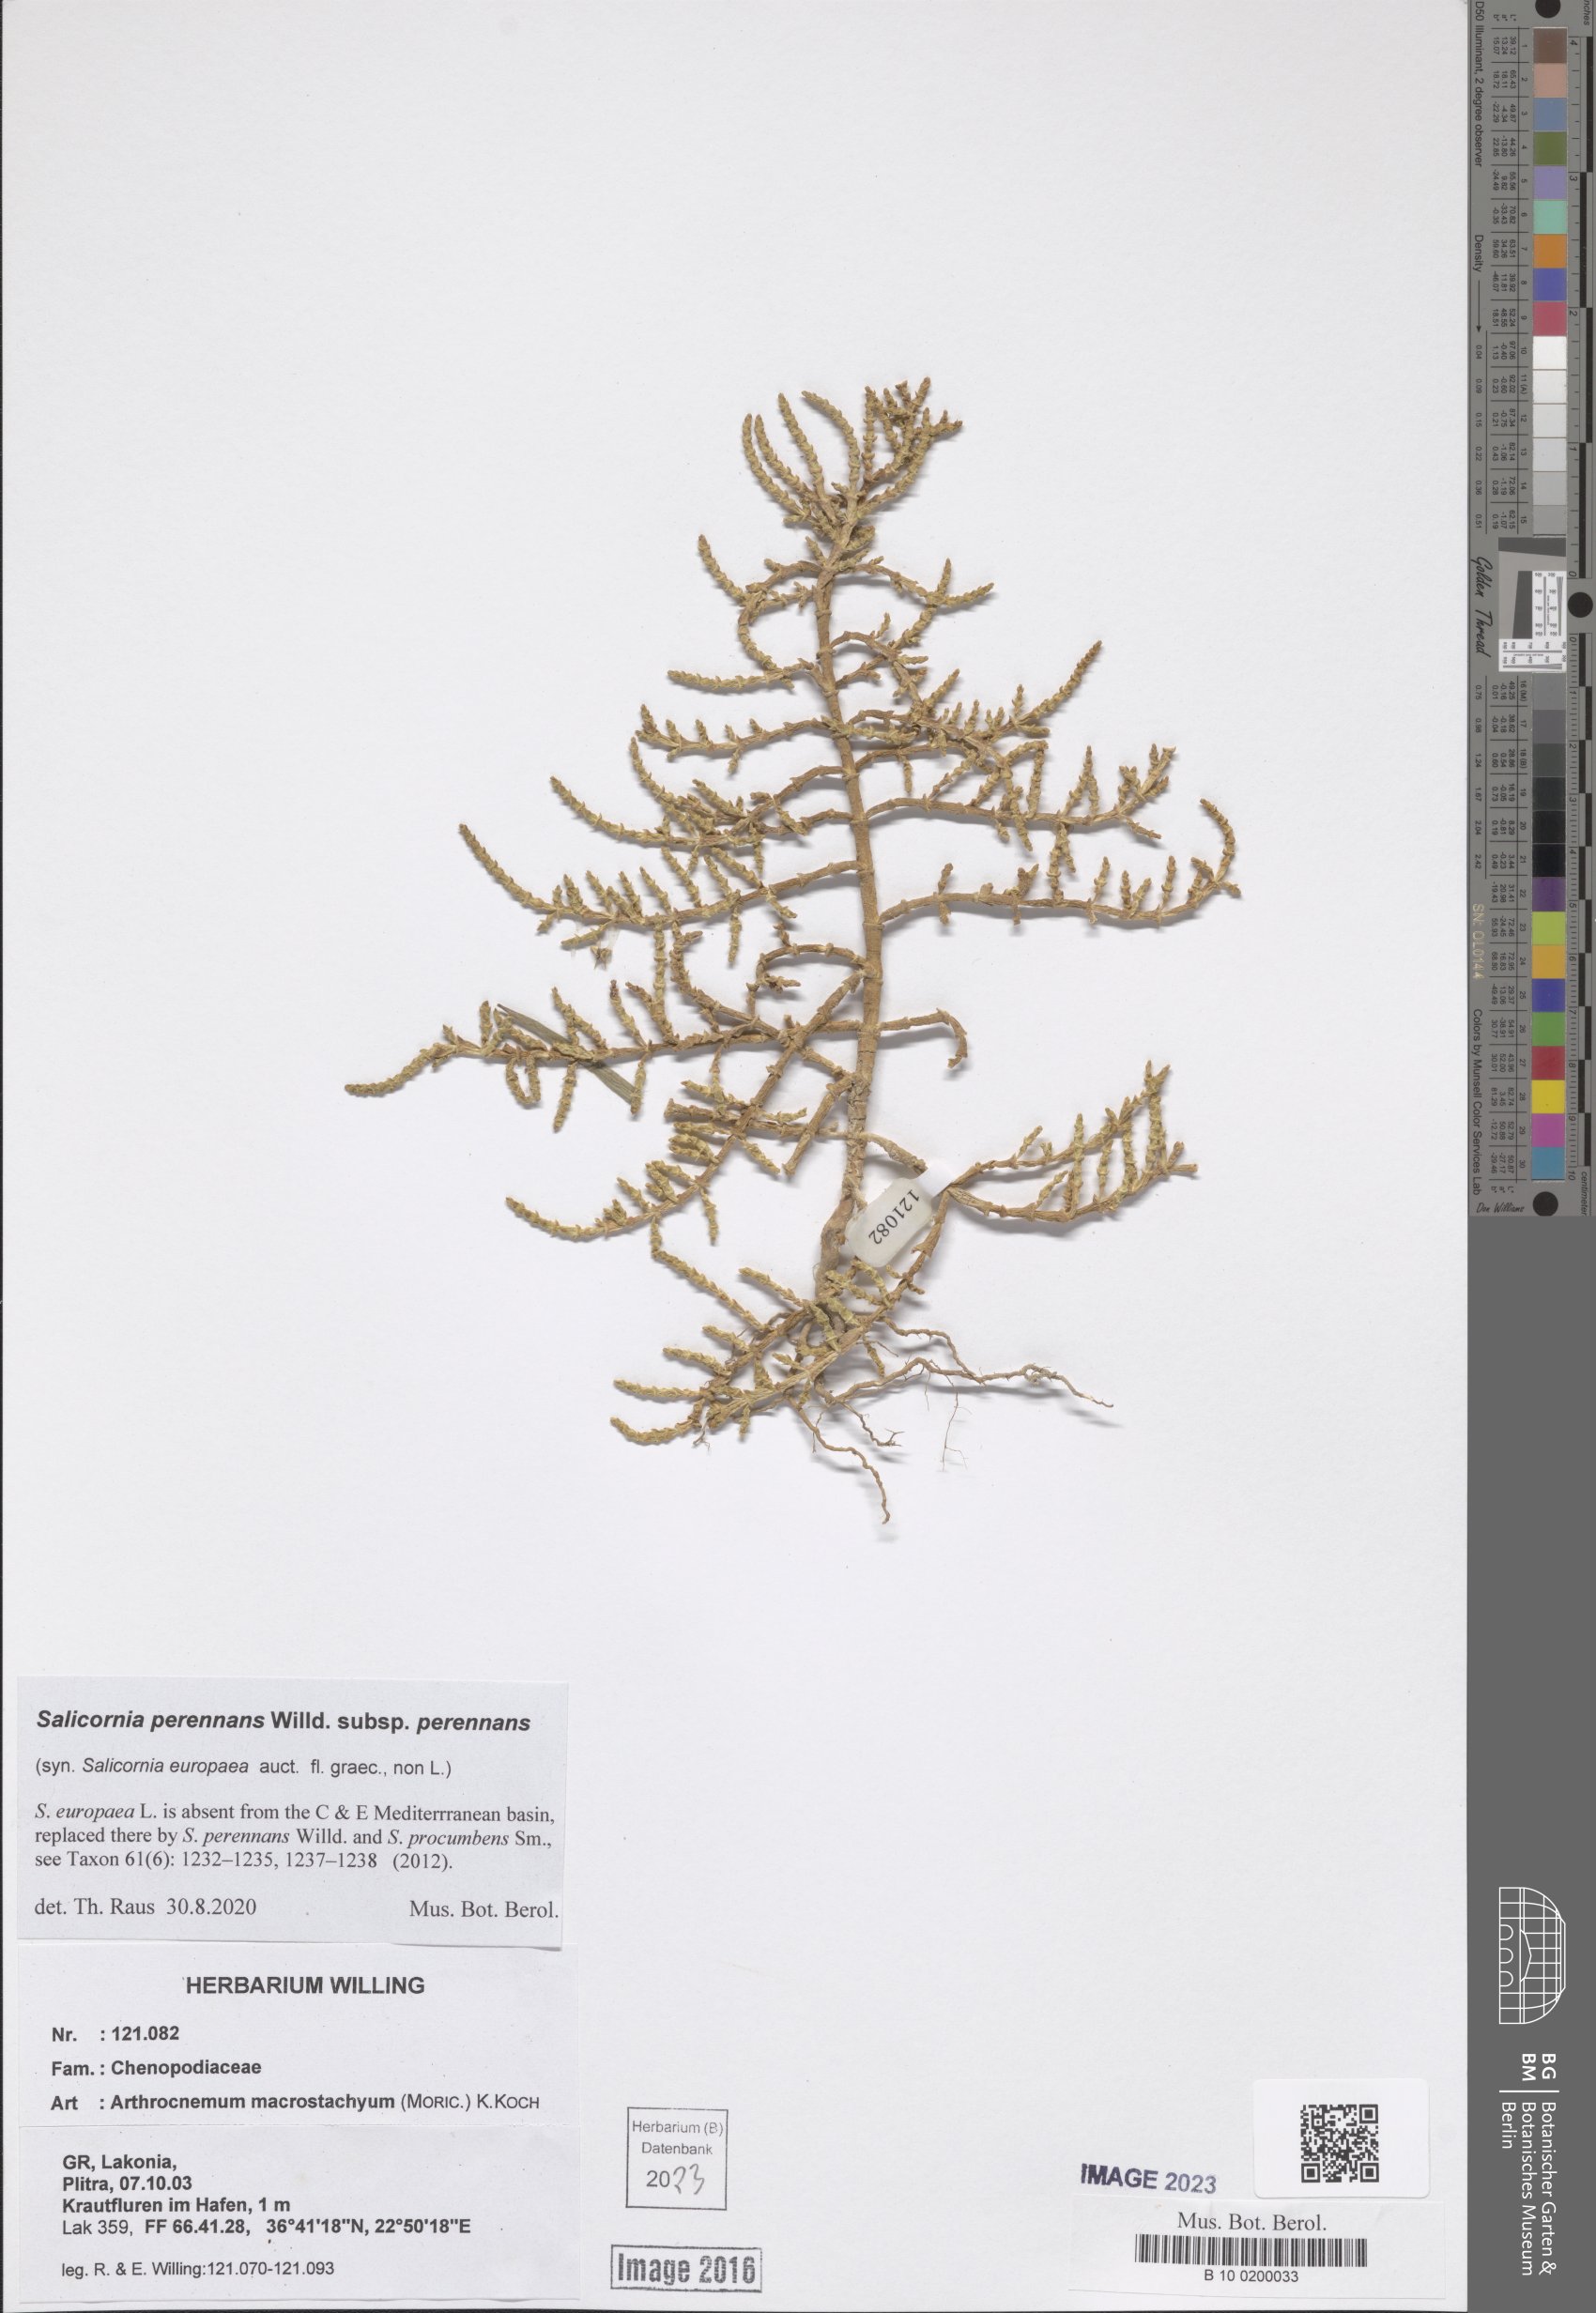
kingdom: Plantae
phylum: Tracheophyta
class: Magnoliopsida
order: Caryophyllales
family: Amaranthaceae
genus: Salicornia
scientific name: Salicornia perennans
